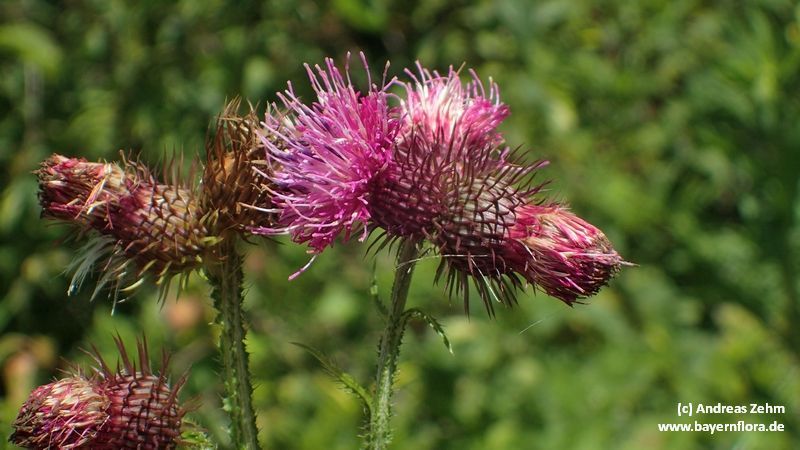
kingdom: Plantae
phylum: Tracheophyta
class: Magnoliopsida
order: Asterales
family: Asteraceae
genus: Carduus
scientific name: Carduus personata
